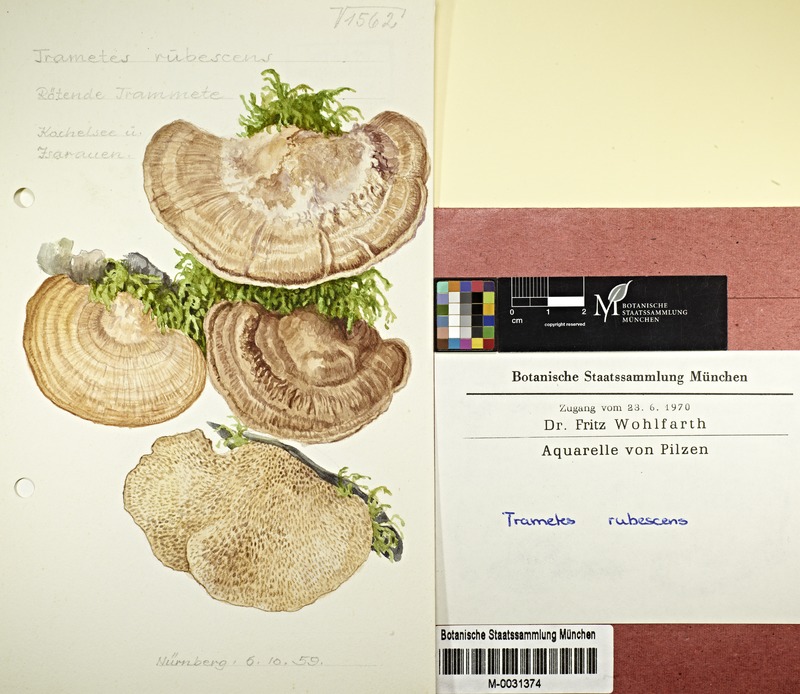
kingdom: Fungi
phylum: Basidiomycota
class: Agaricomycetes
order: Polyporales
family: Polyporaceae
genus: Daedaleopsis
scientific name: Daedaleopsis confragosa
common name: Blushing bracket
